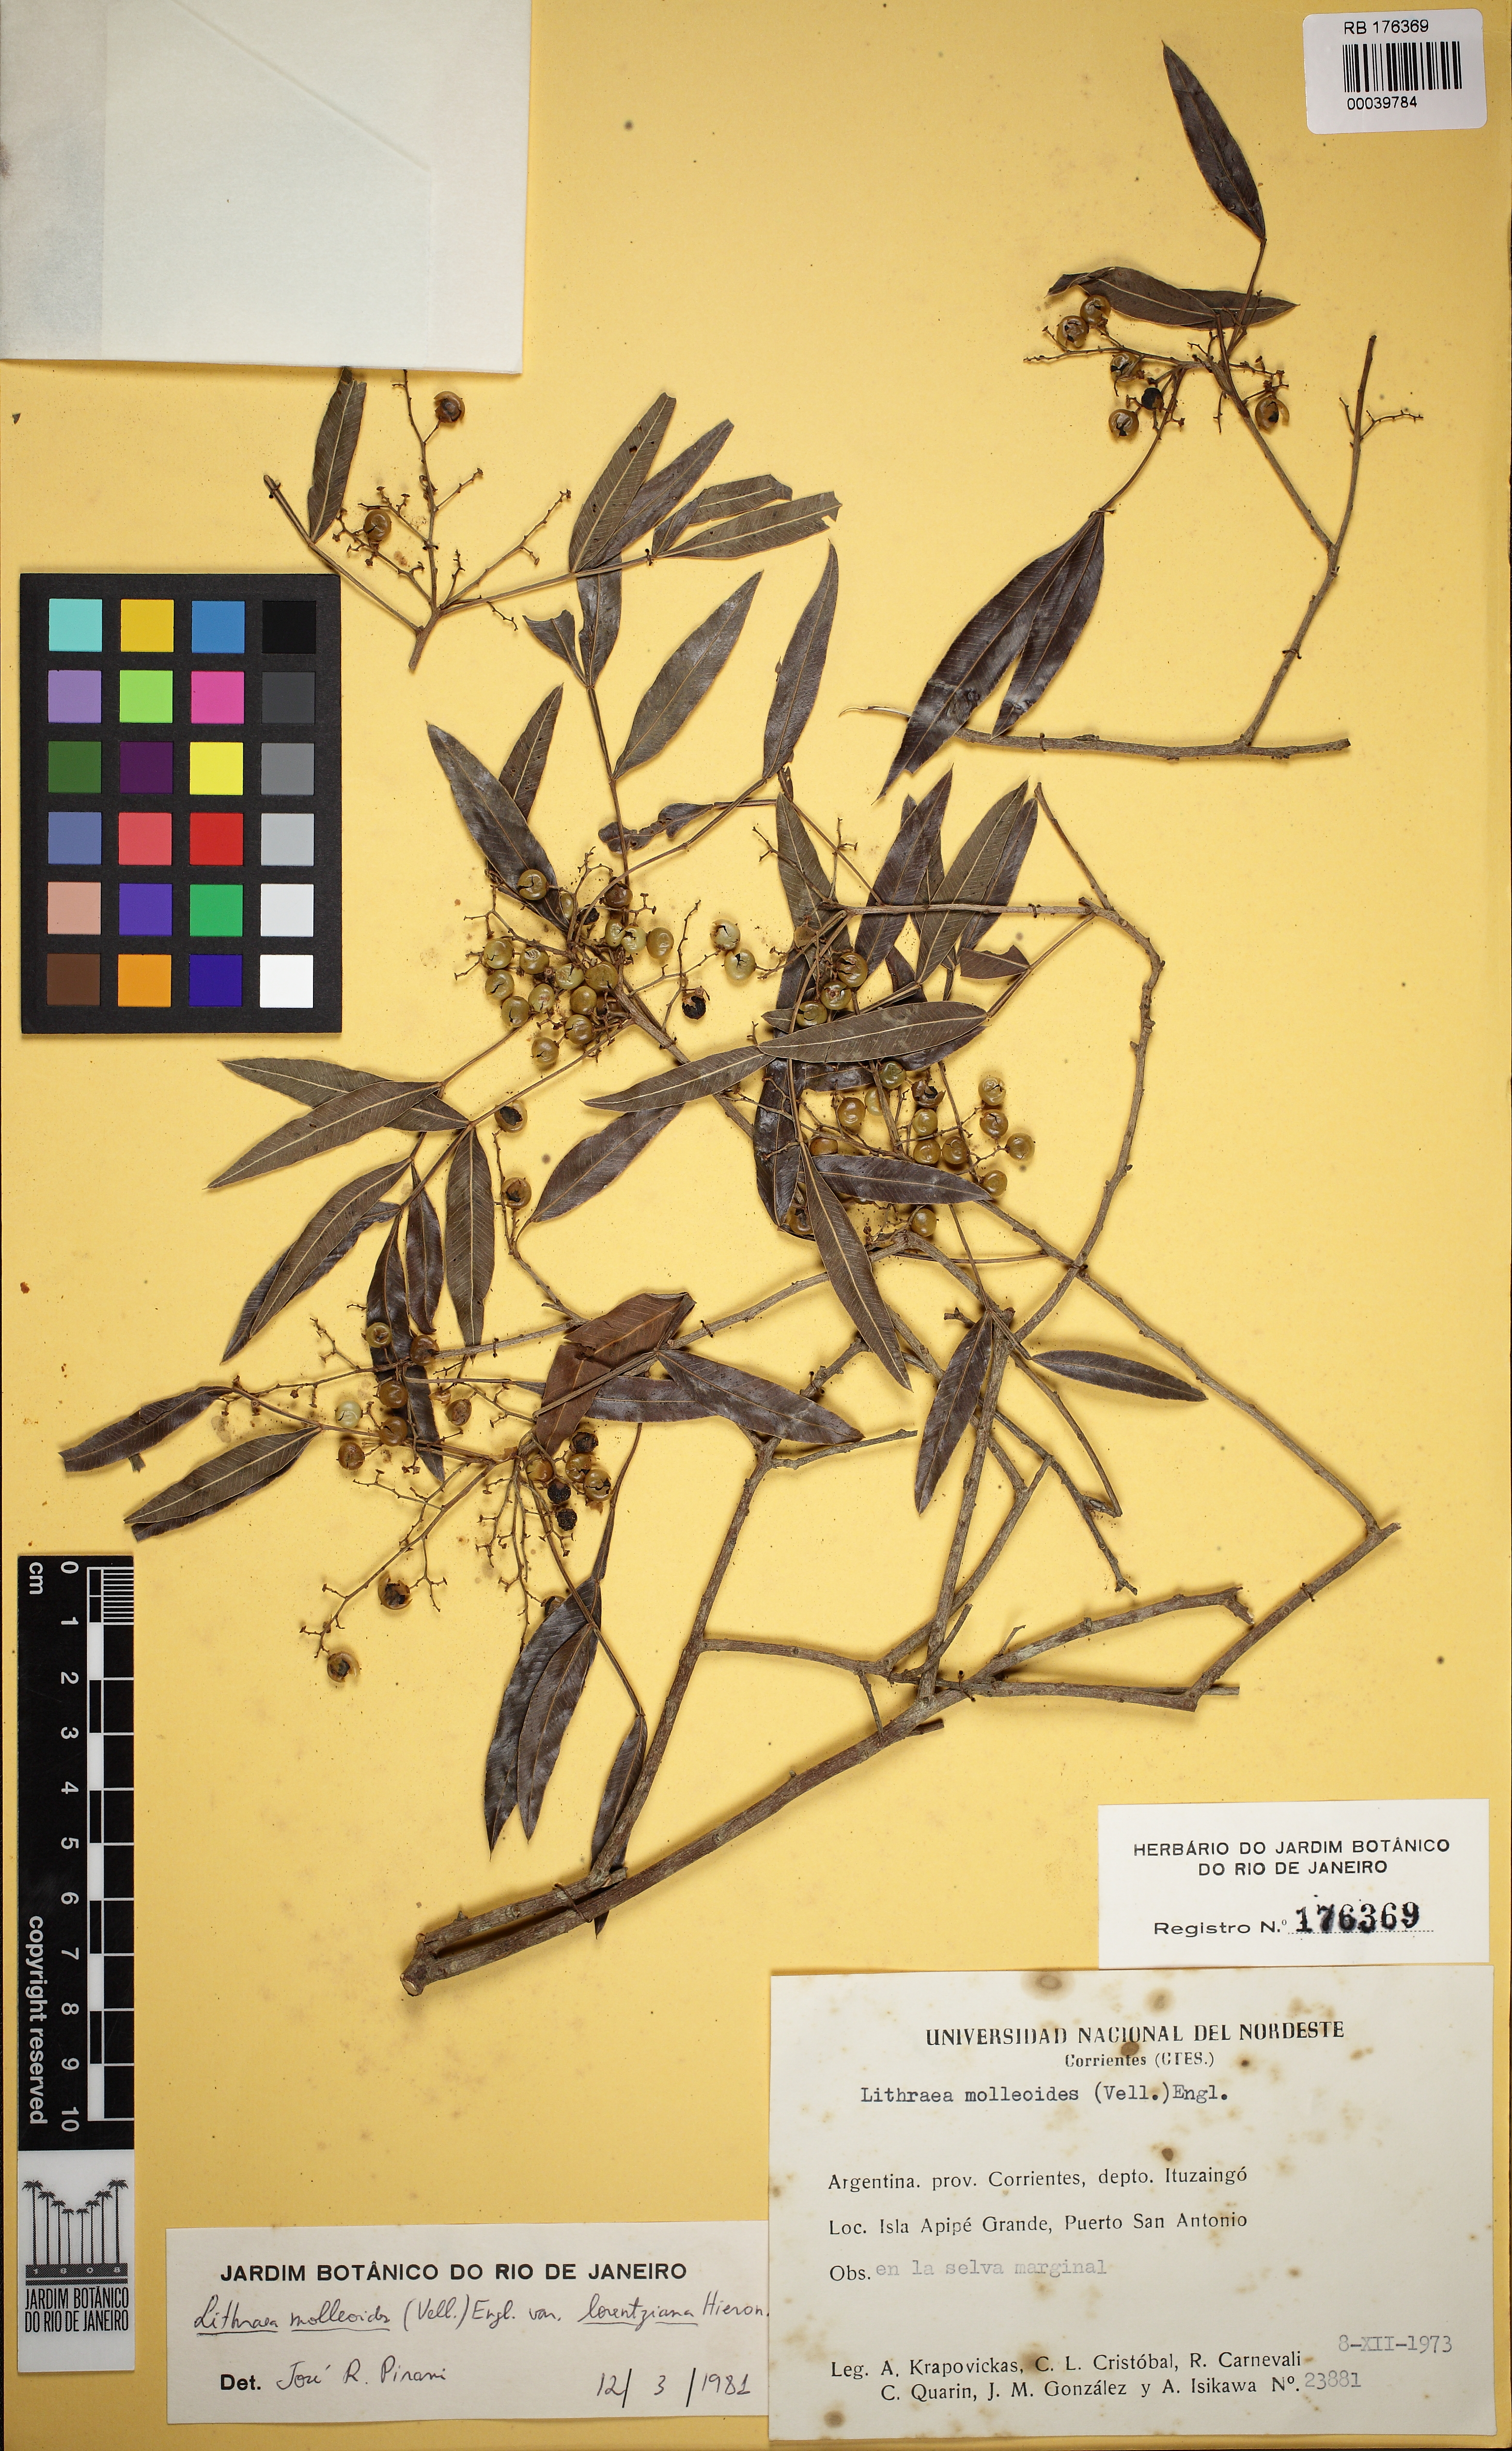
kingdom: Plantae
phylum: Tracheophyta
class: Magnoliopsida
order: Sapindales
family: Anacardiaceae
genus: Lithraea
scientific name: Lithraea molleoides
